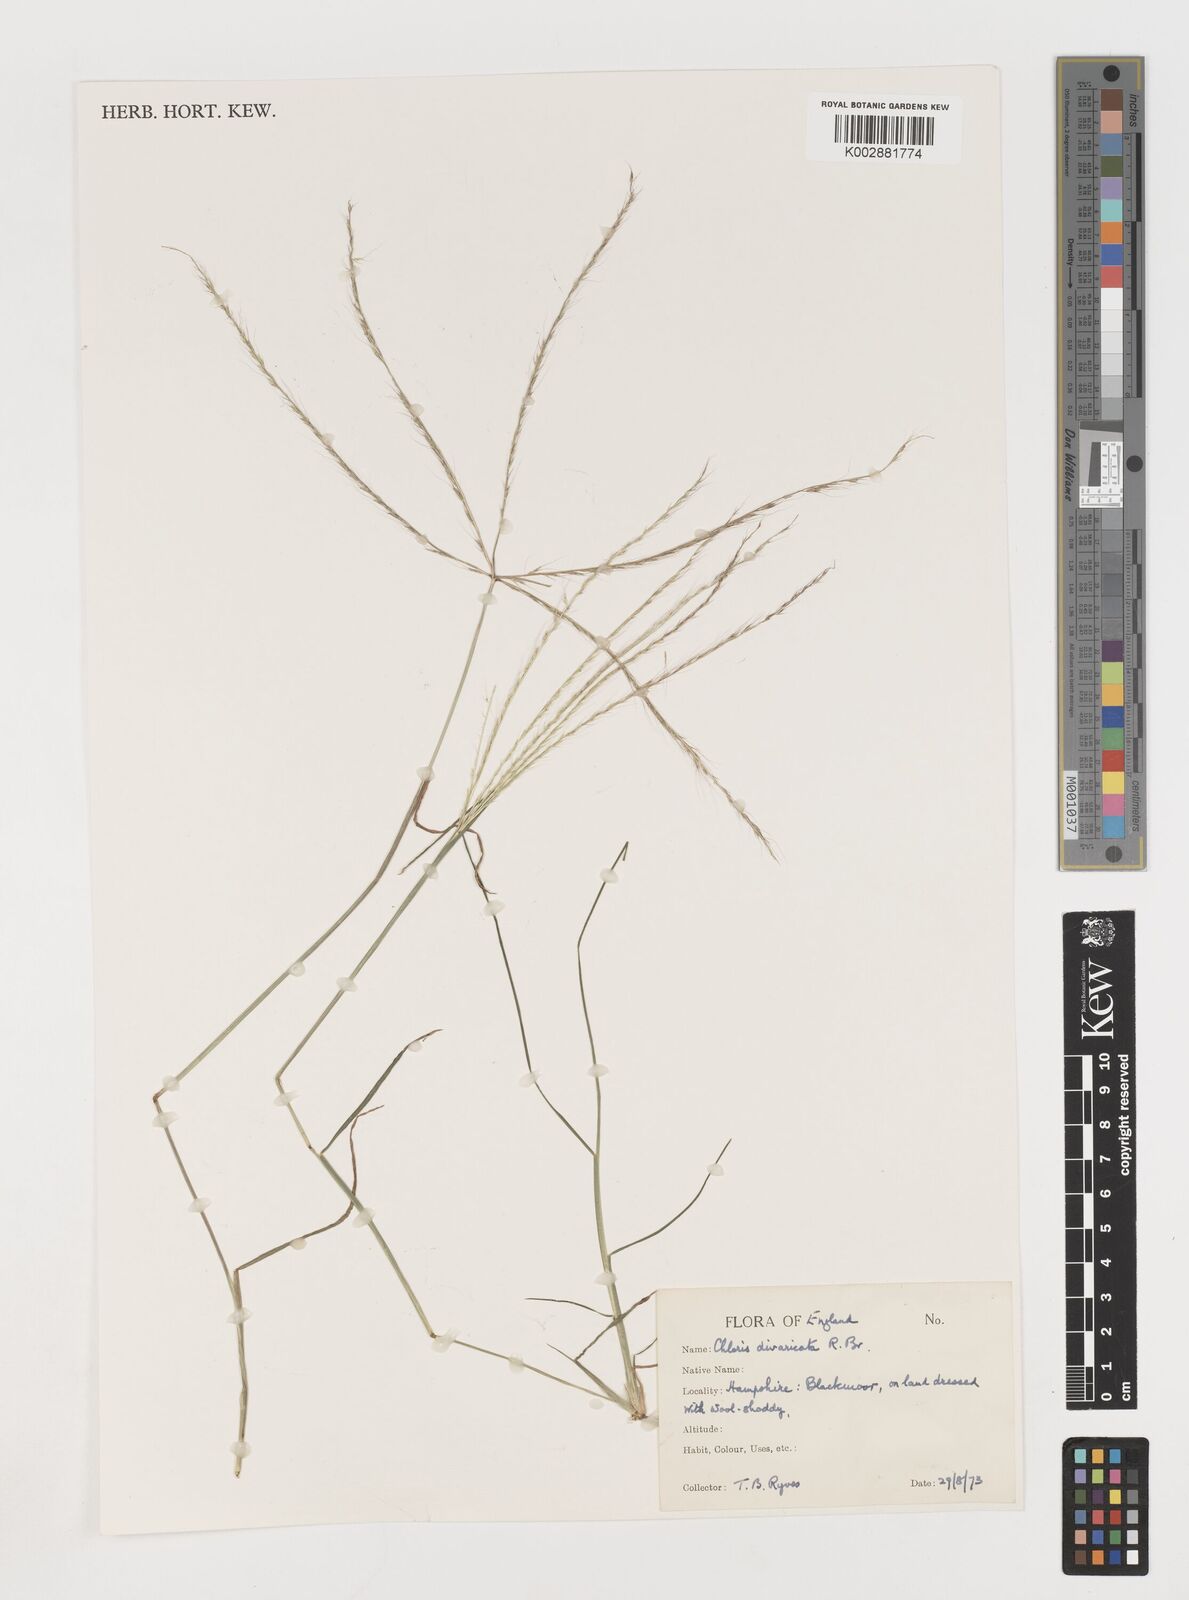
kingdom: Plantae
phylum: Tracheophyta
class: Liliopsida
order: Poales
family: Poaceae
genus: Chloris
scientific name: Chloris divaricata
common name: Spreading windmill grass
